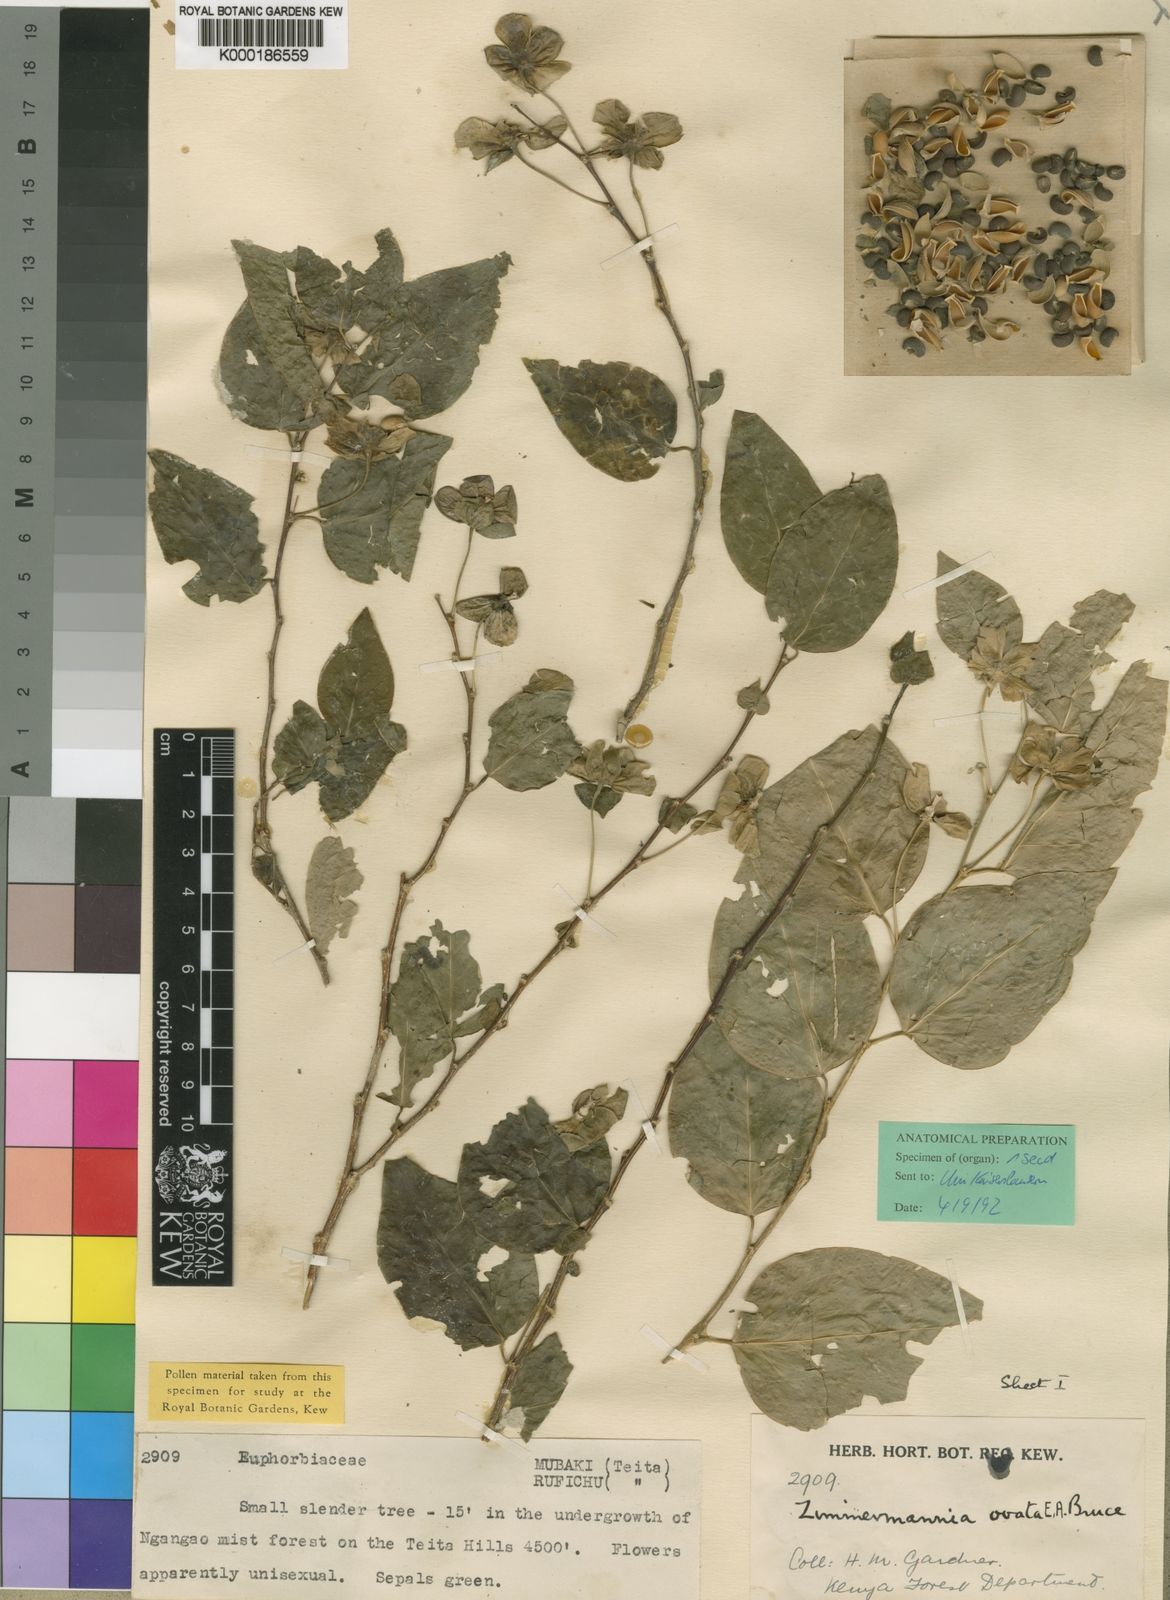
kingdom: Plantae
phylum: Tracheophyta
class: Magnoliopsida
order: Malpighiales
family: Phyllanthaceae
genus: Meineckia
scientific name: Meineckia ovata
